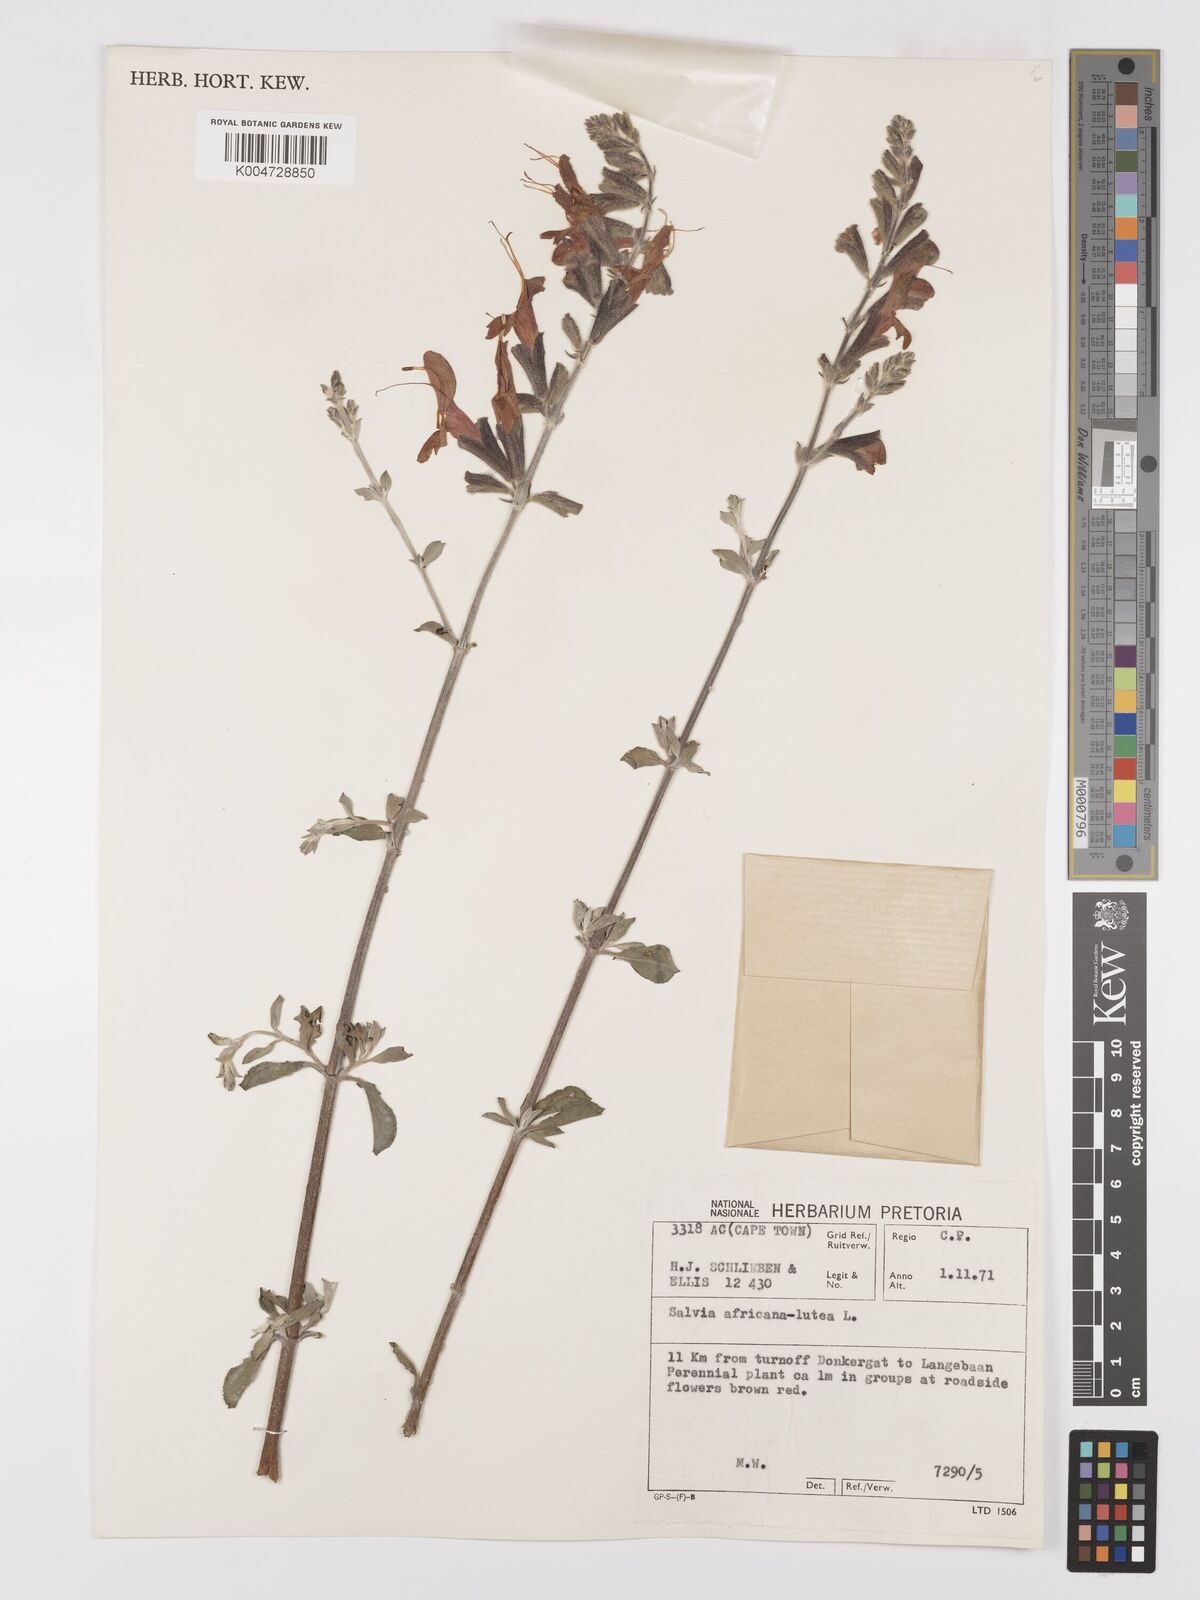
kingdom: Plantae
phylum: Tracheophyta
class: Magnoliopsida
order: Lamiales
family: Lamiaceae
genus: Salvia
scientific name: Salvia aurea
